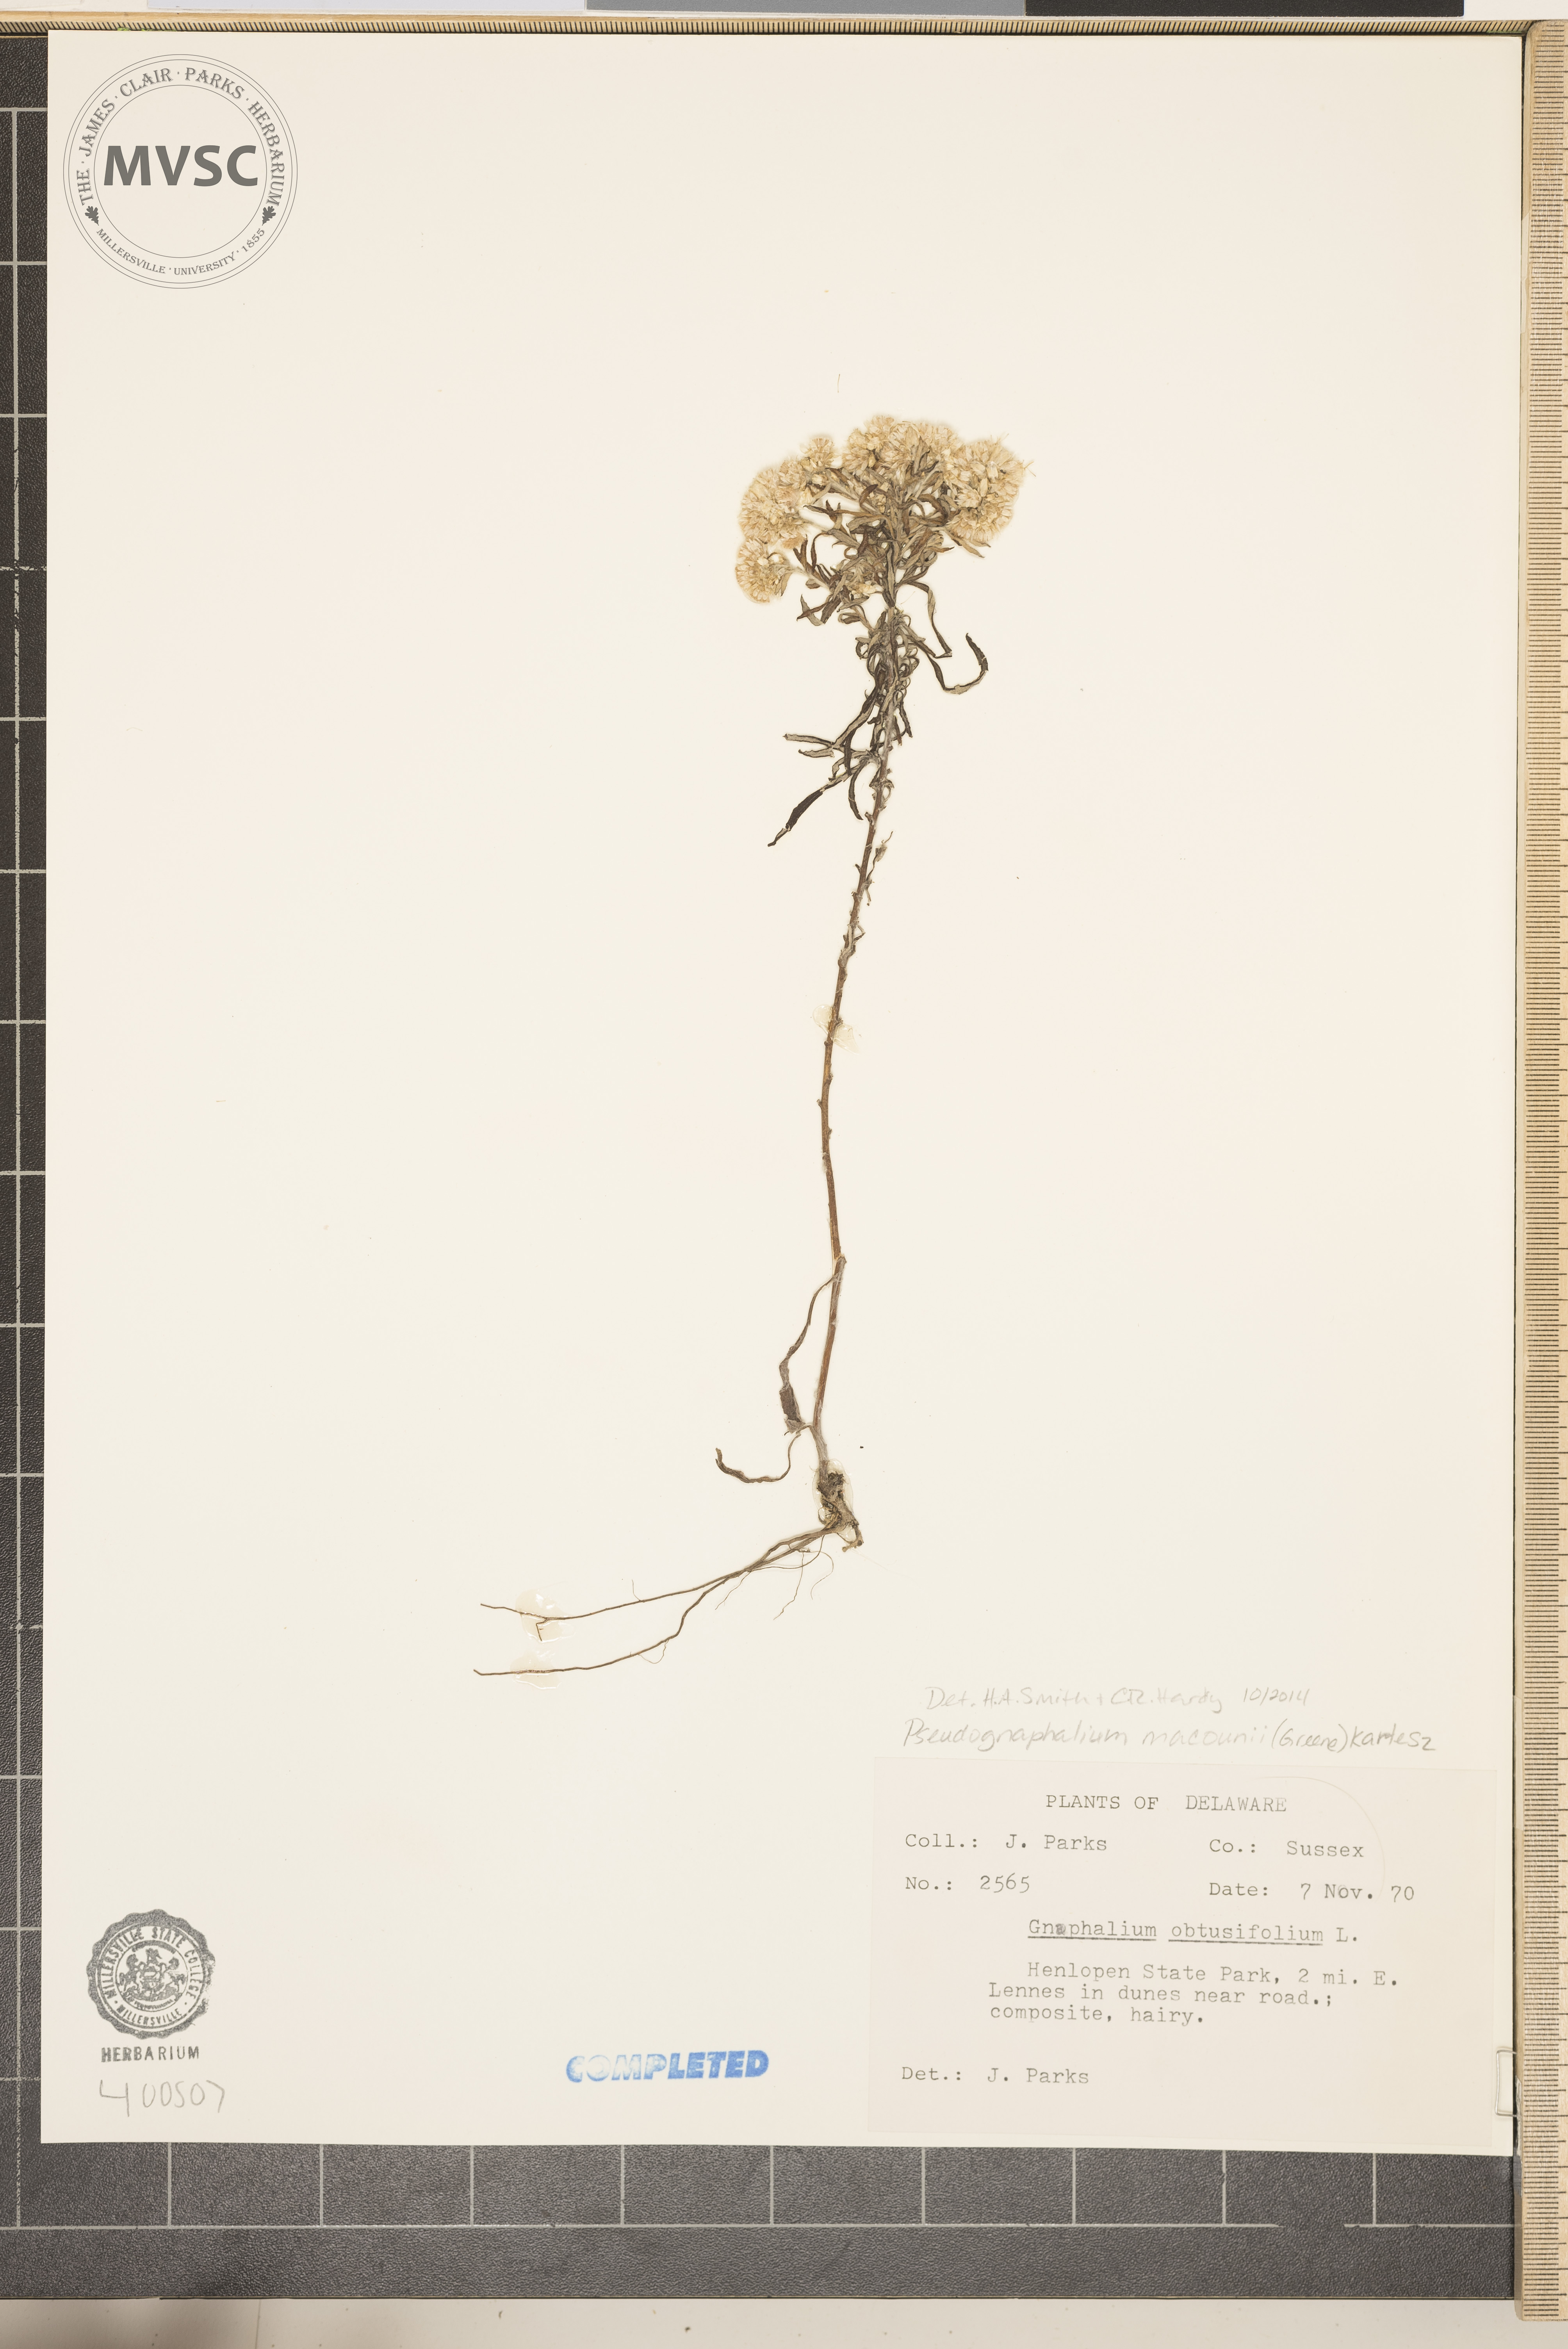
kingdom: Plantae
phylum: Tracheophyta
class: Magnoliopsida
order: Asterales
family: Asteraceae
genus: Pseudognaphalium
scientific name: Pseudognaphalium obtusifolium
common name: Fragrant cudweed
